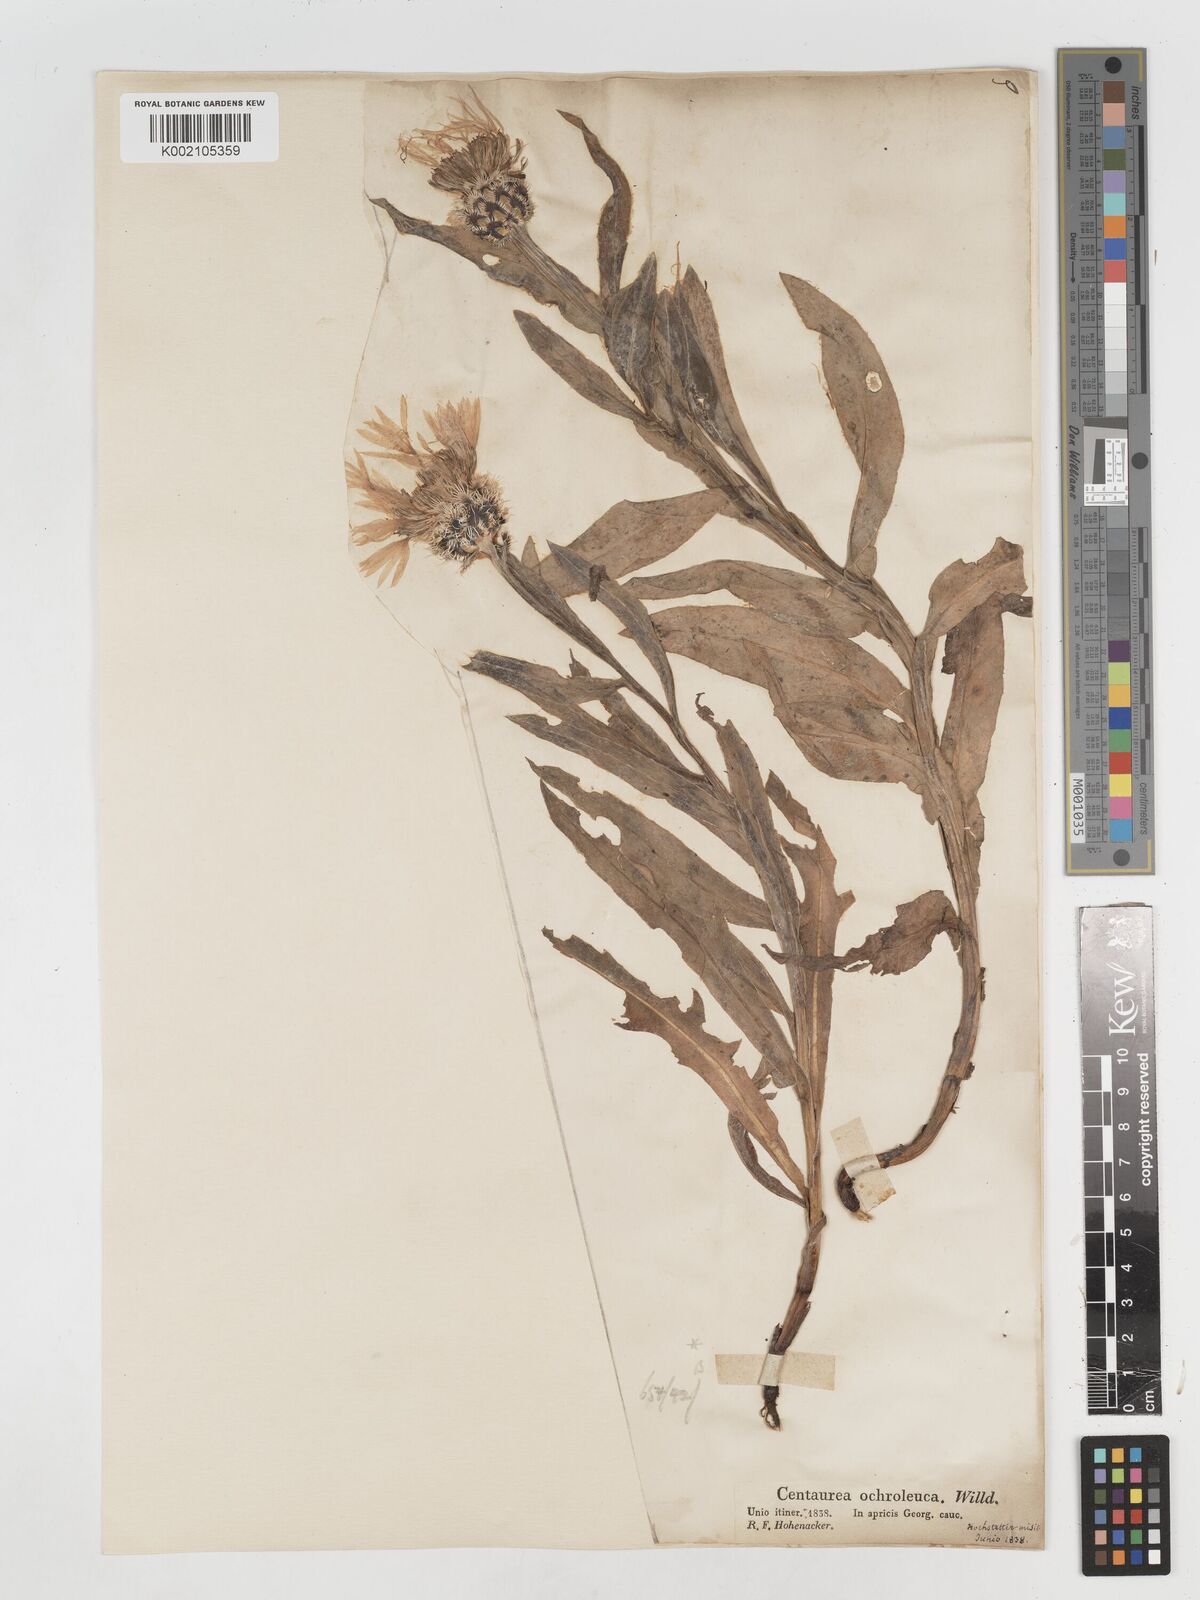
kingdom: Plantae
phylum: Tracheophyta
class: Magnoliopsida
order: Asterales
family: Asteraceae
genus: Centaurea
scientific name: Centaurea cheiranthifolia
